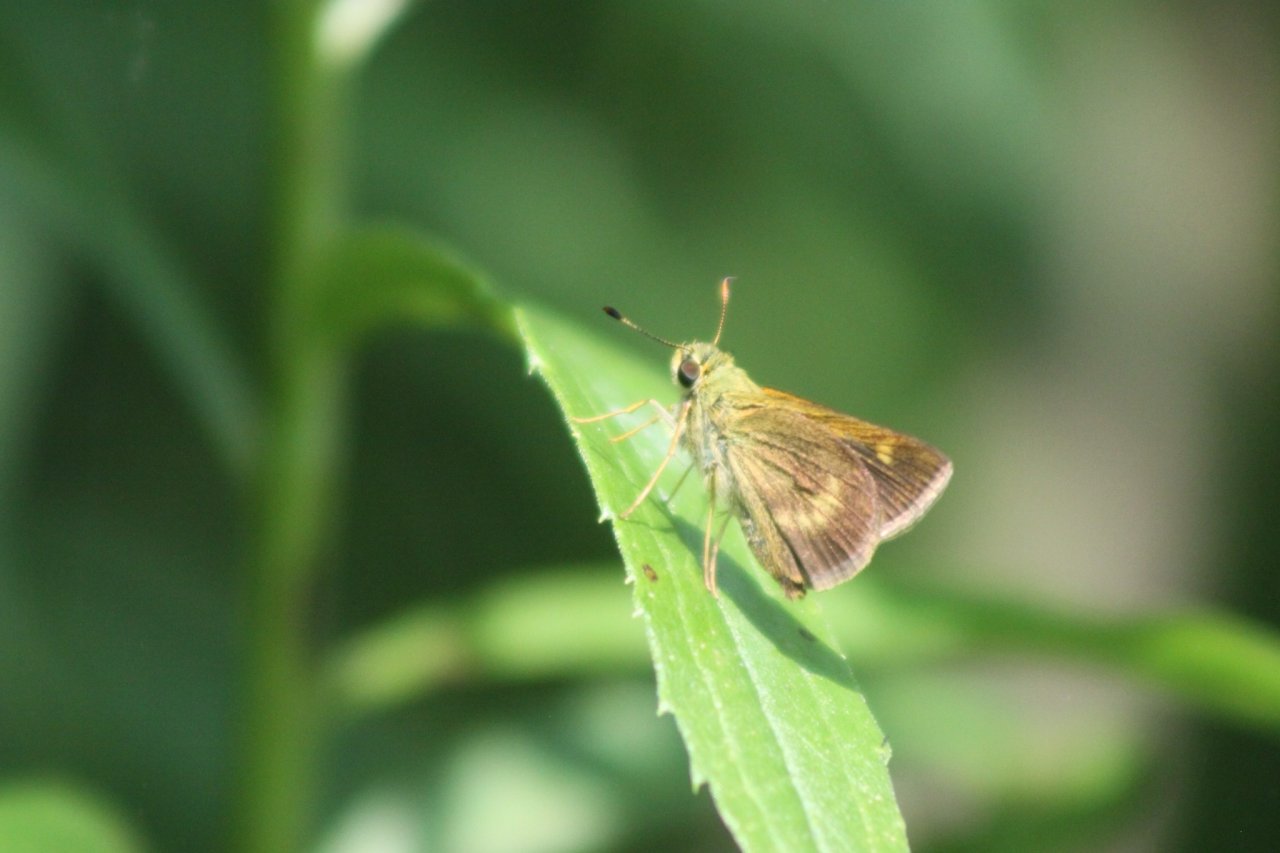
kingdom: Animalia
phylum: Arthropoda
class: Insecta
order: Lepidoptera
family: Hesperiidae
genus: Polites
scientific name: Polites egeremet
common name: Northern Broken-Dash
